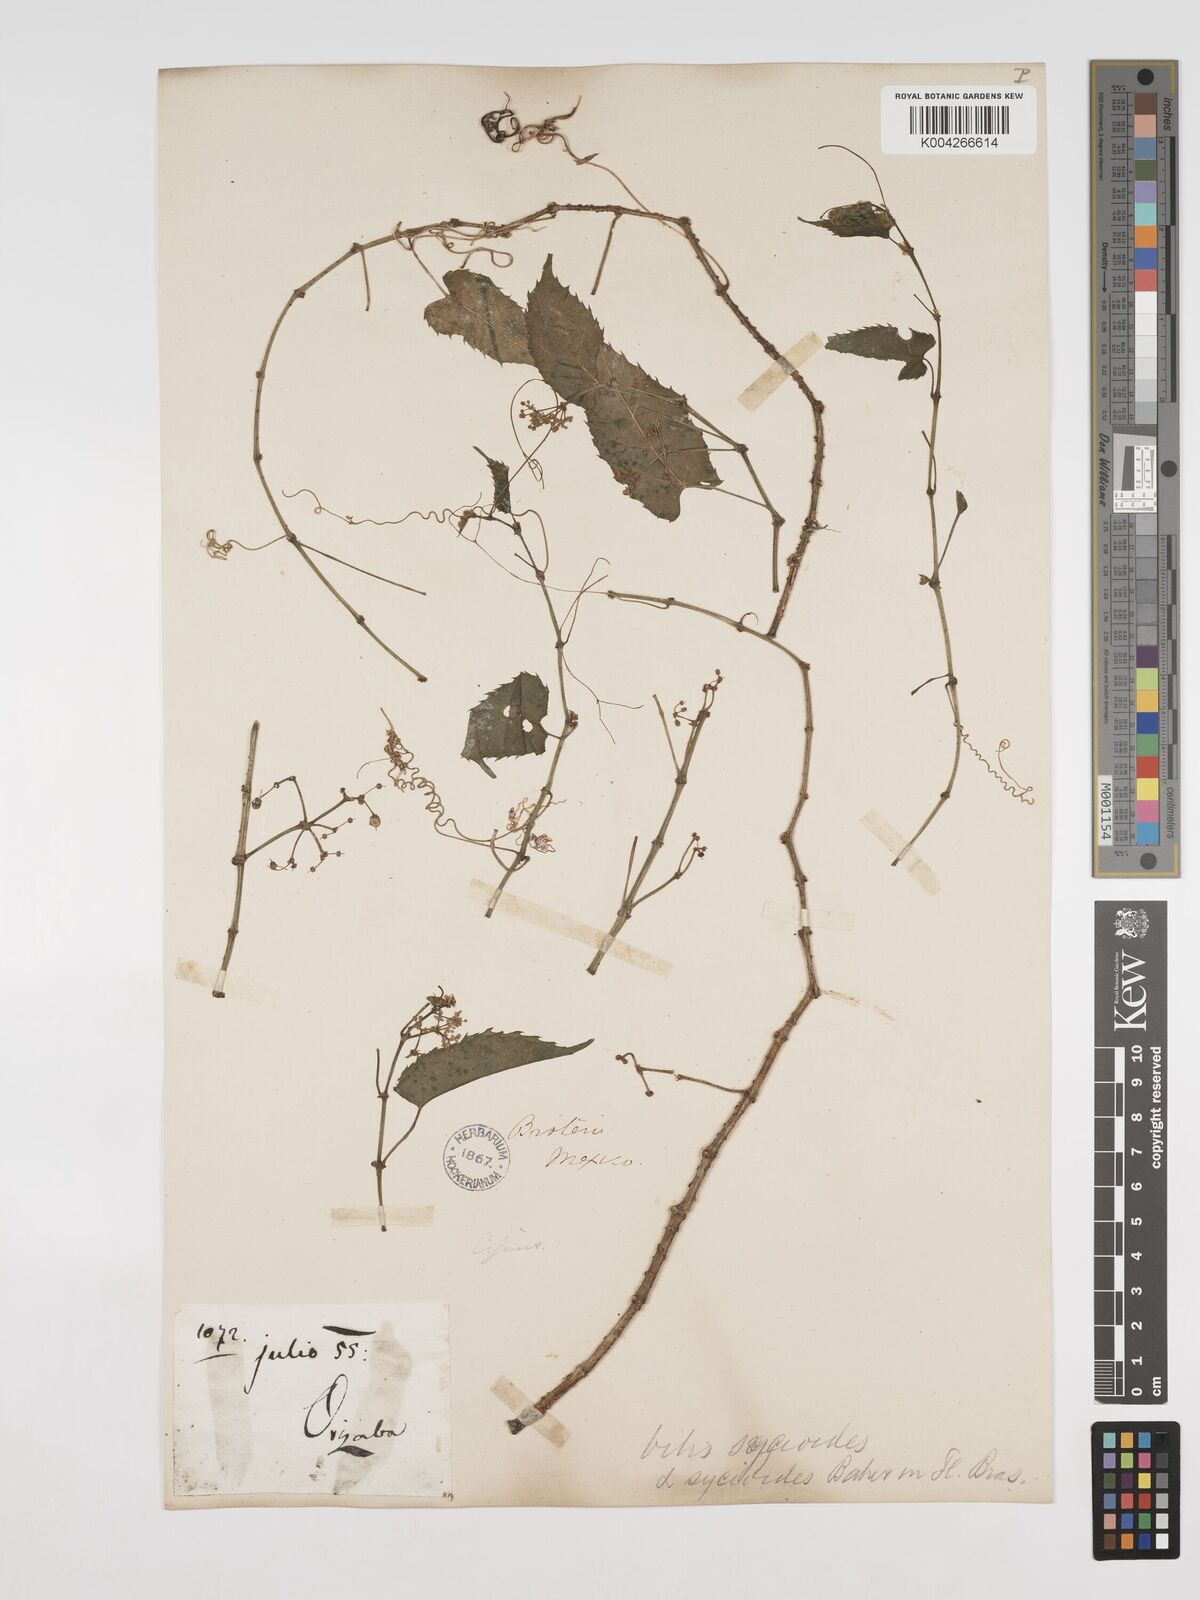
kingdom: Plantae
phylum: Tracheophyta
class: Magnoliopsida
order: Vitales
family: Vitaceae
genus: Cissus
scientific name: Cissus
